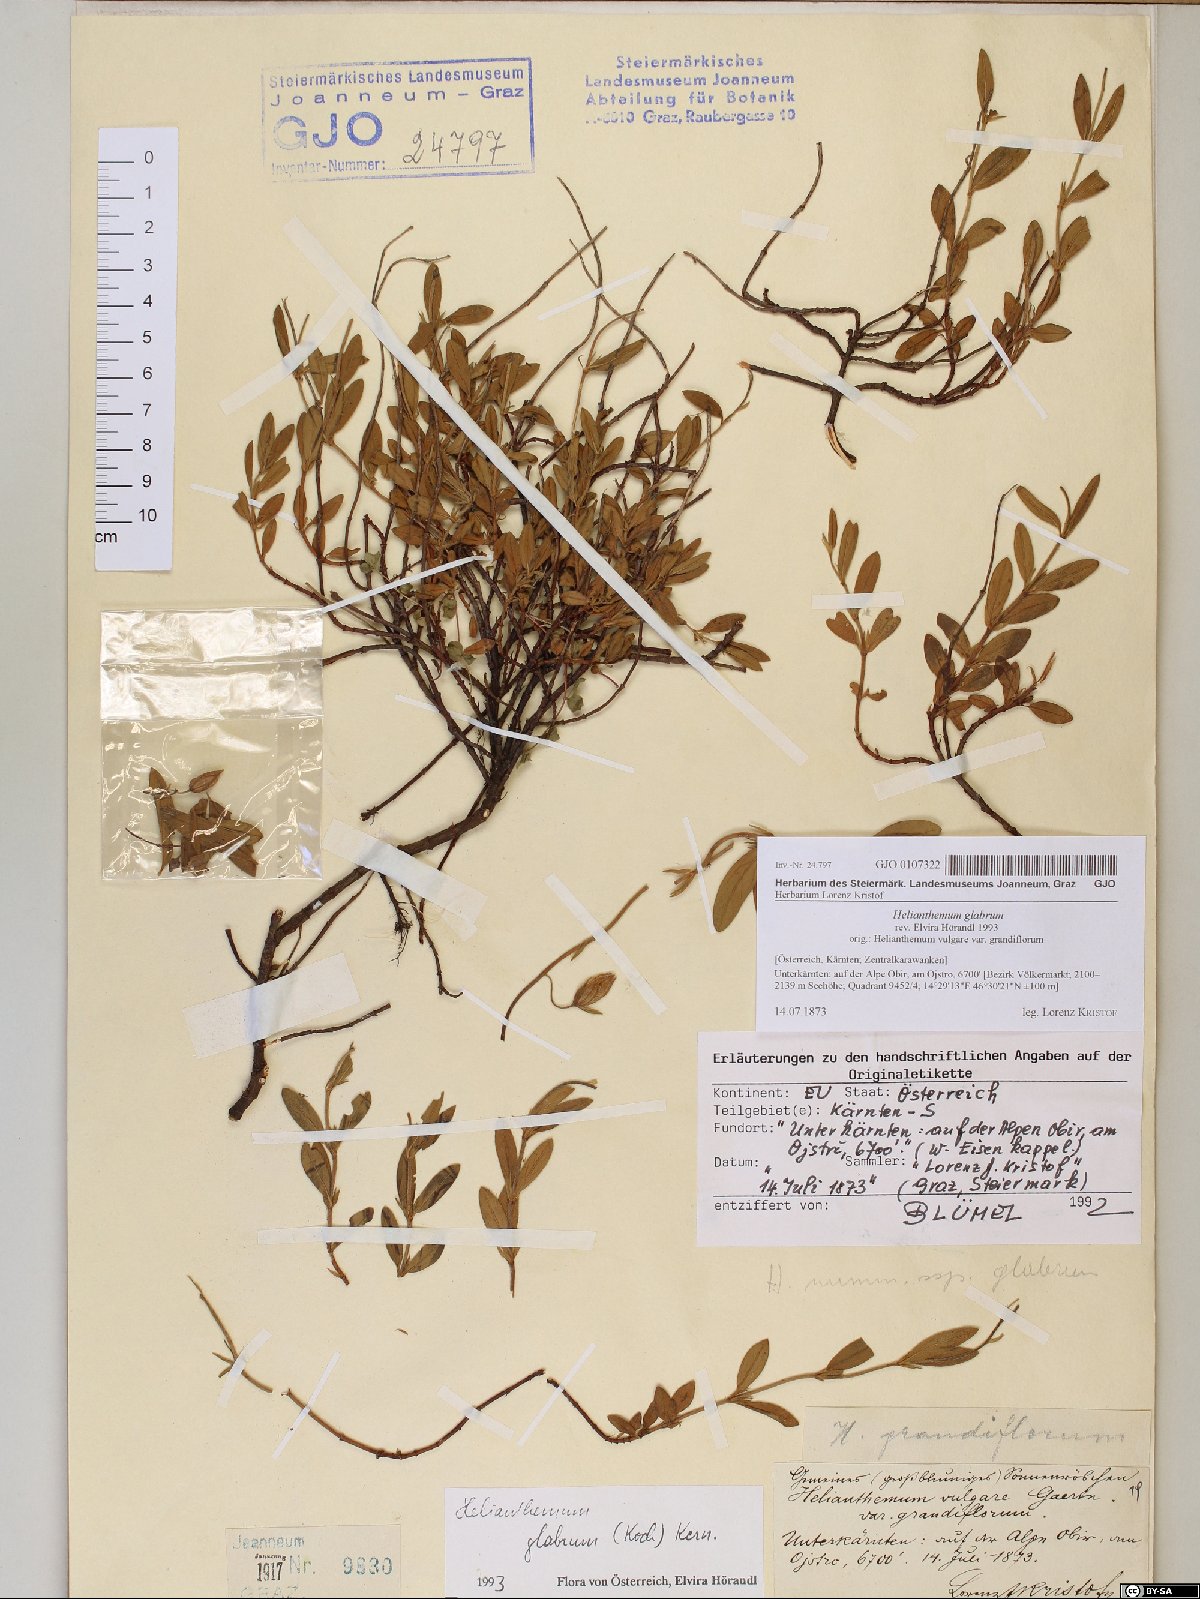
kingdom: Plantae
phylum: Tracheophyta
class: Magnoliopsida
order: Malvales
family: Cistaceae
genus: Helianthemum
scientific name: Helianthemum nummularium
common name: Common rock-rose
